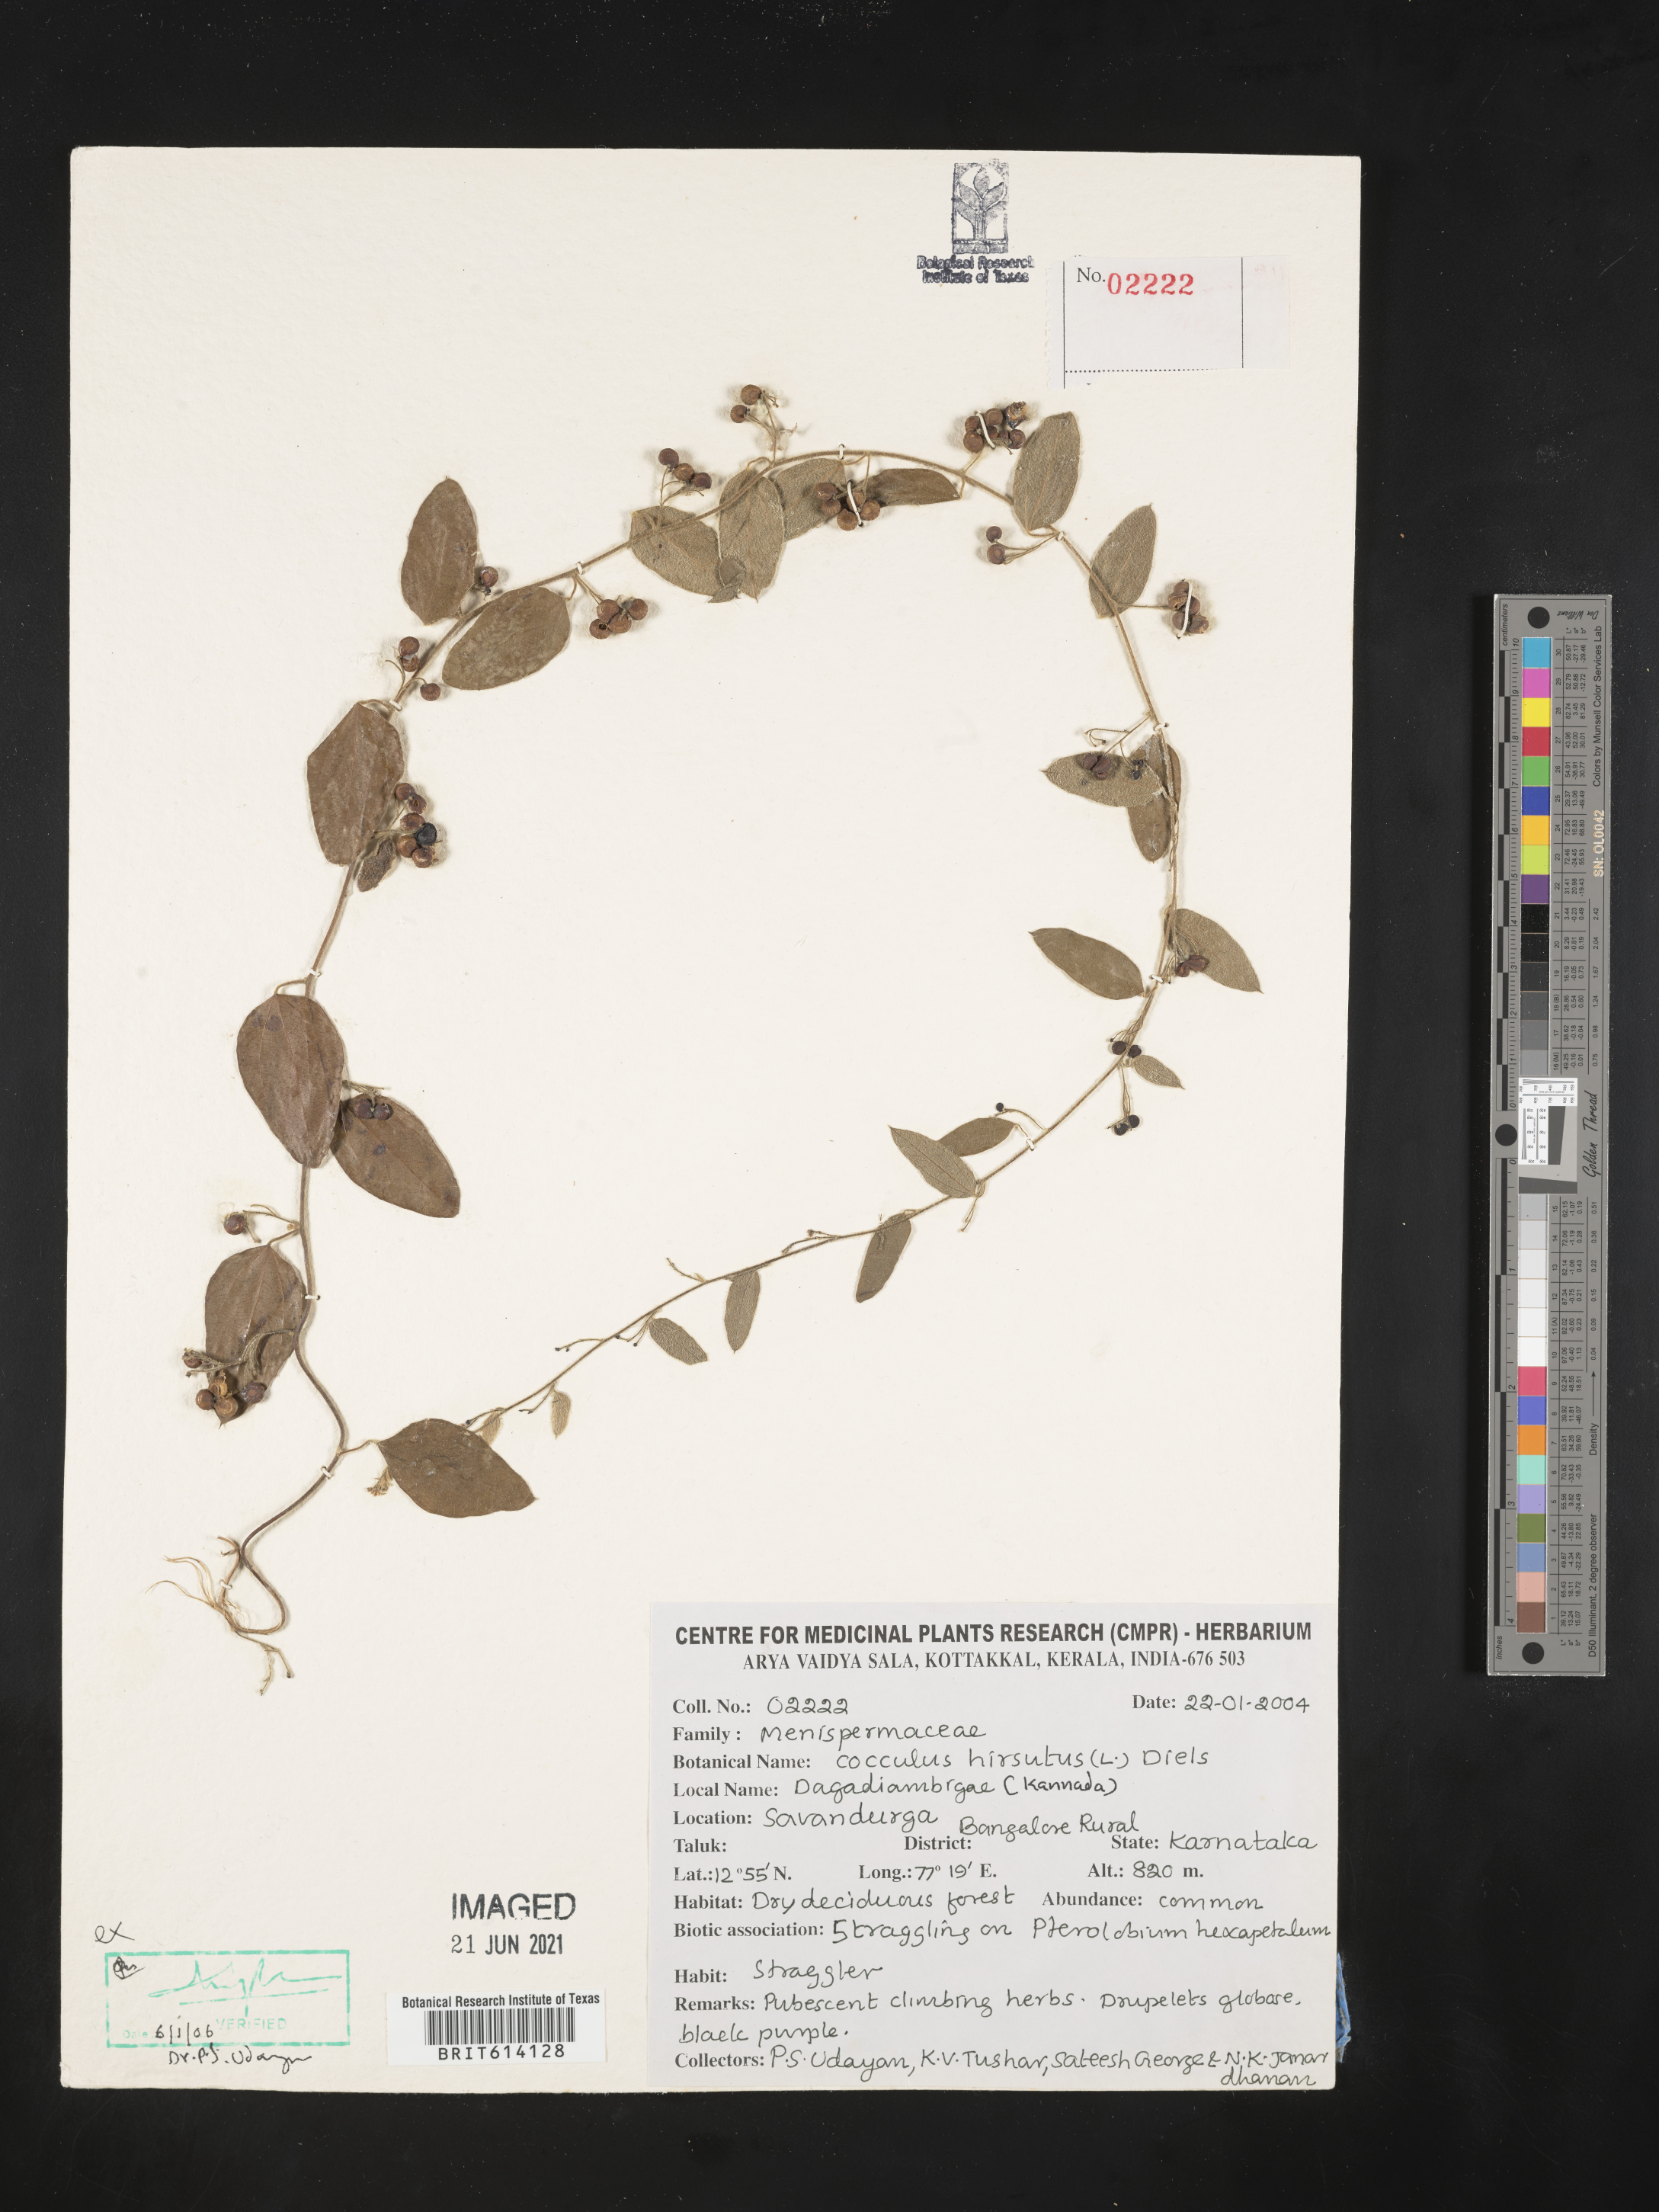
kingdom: Plantae
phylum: Tracheophyta
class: Magnoliopsida
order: Ranunculales
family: Menispermaceae
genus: Cocculus
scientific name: Cocculus hirsutus
